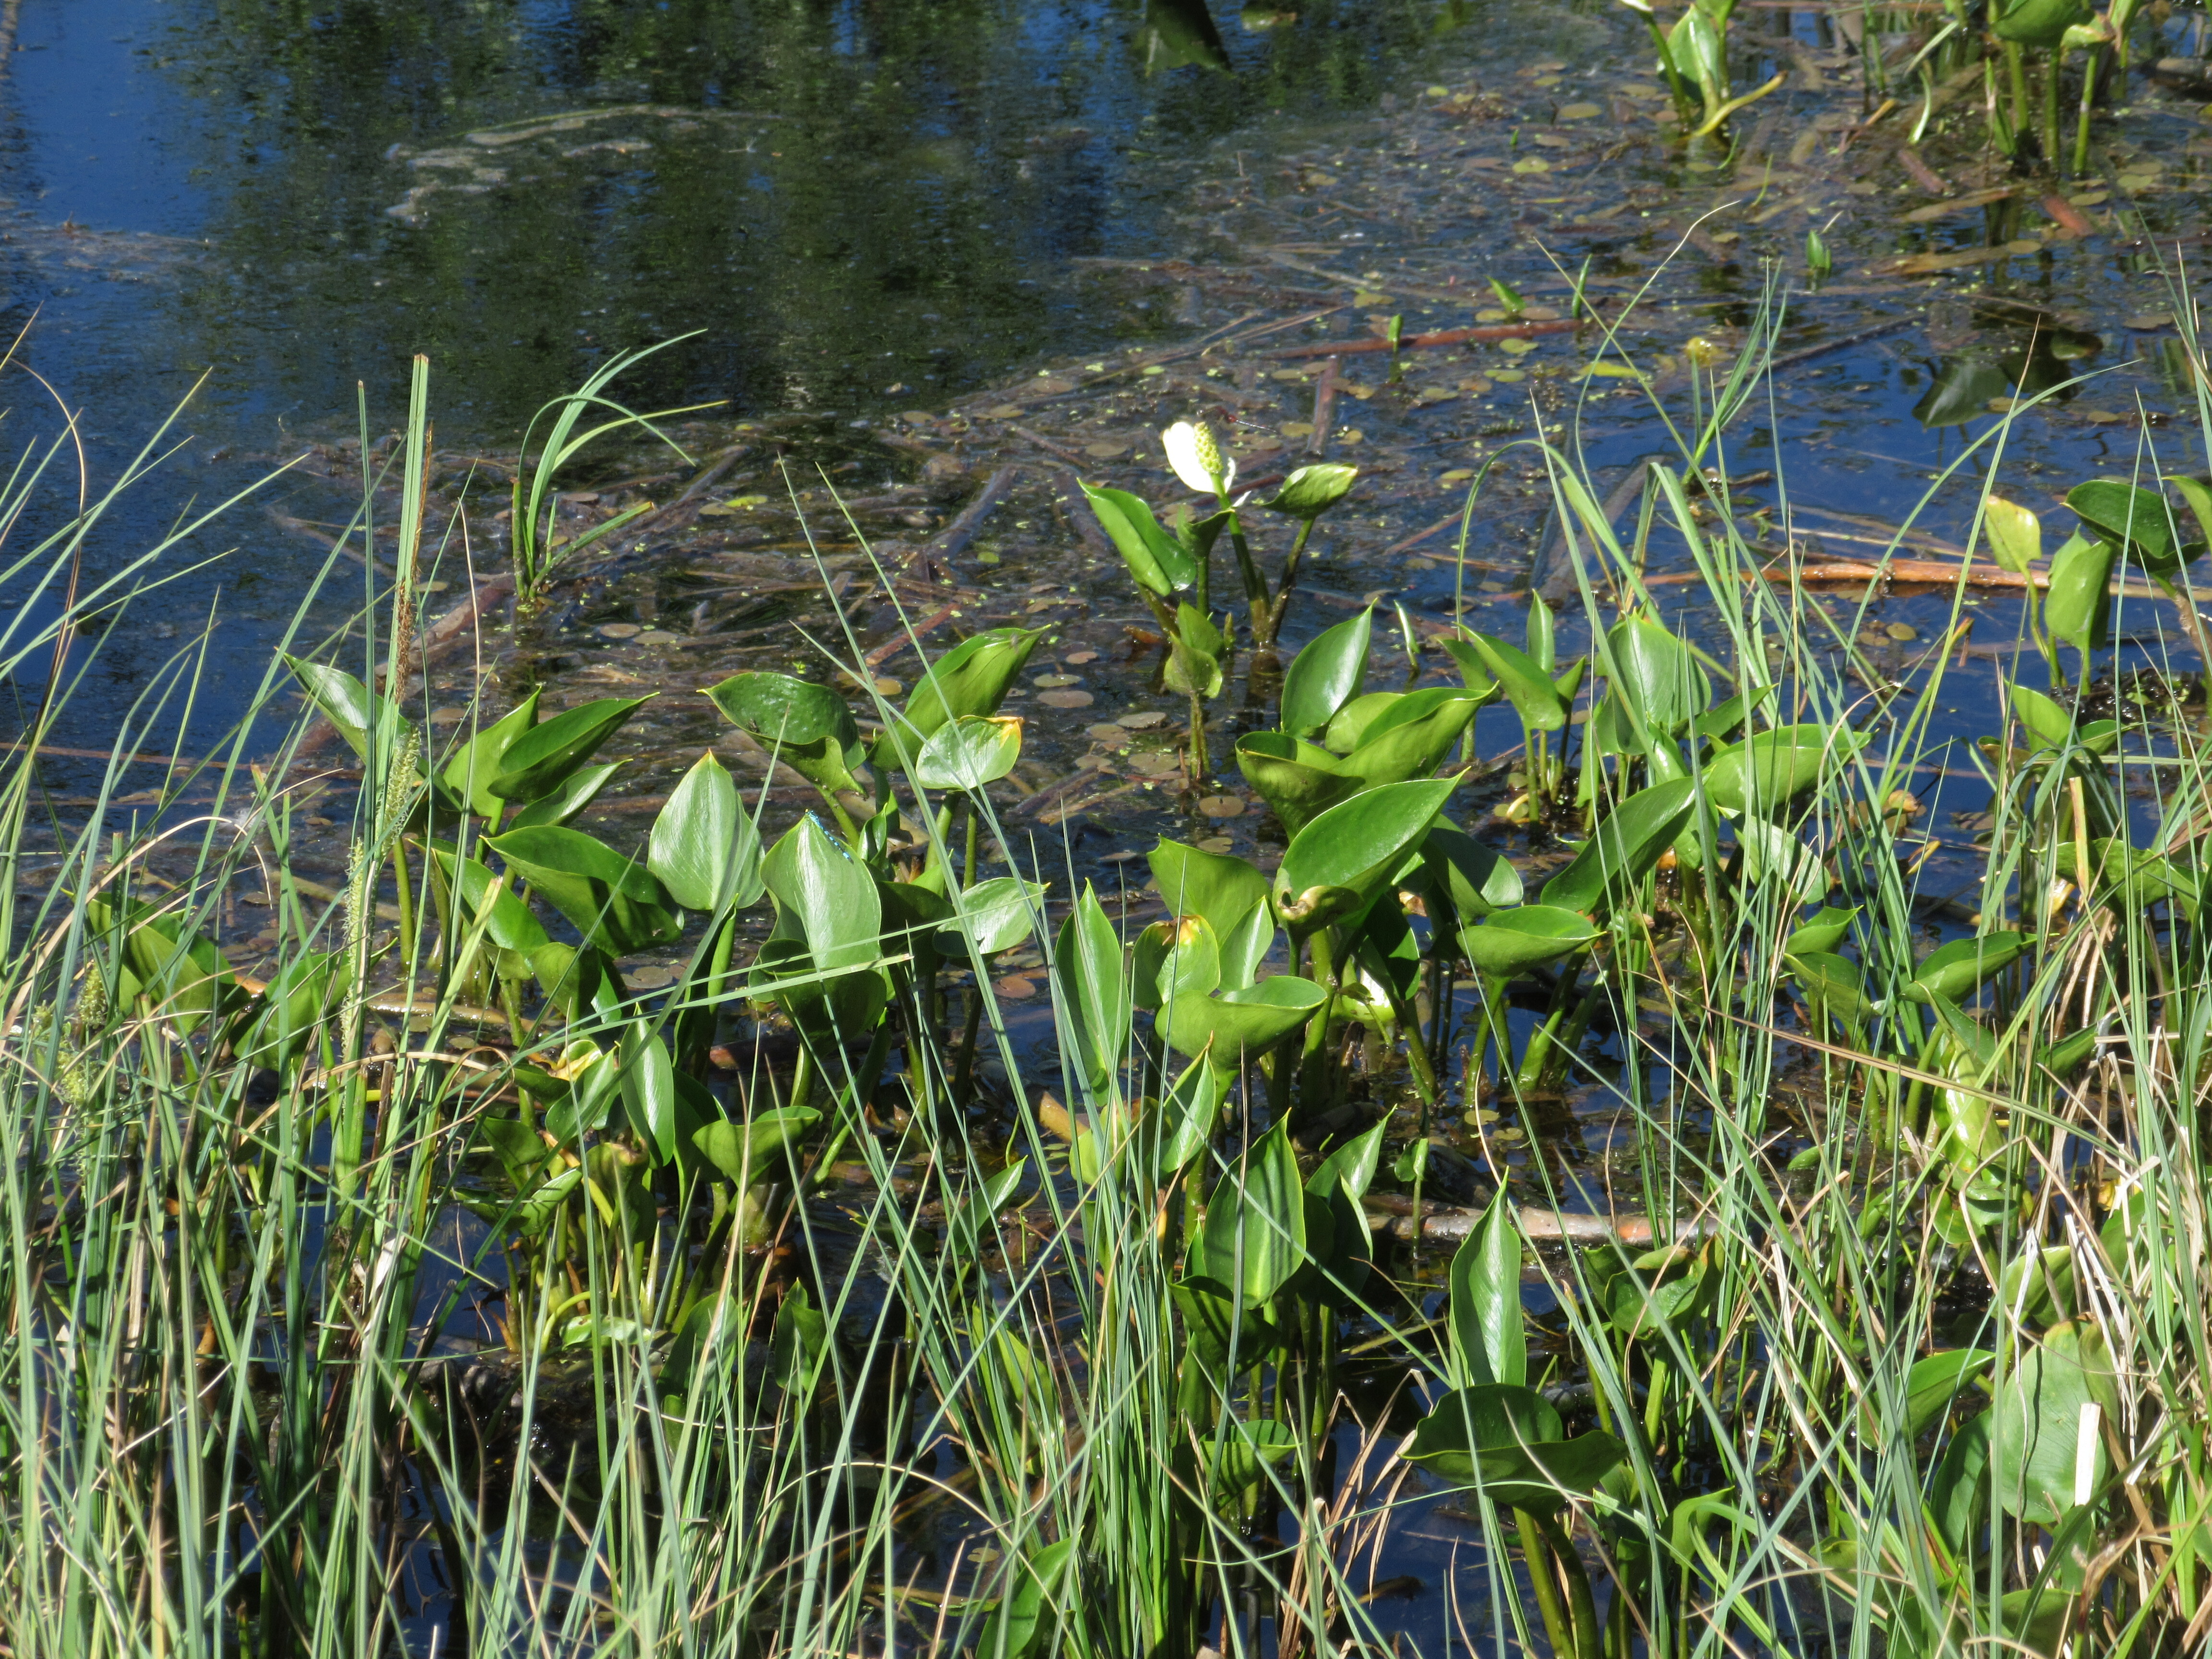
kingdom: Plantae
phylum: Tracheophyta
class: Liliopsida
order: Alismatales
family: Araceae
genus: Calla
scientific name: Calla palustris
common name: Bog arum
